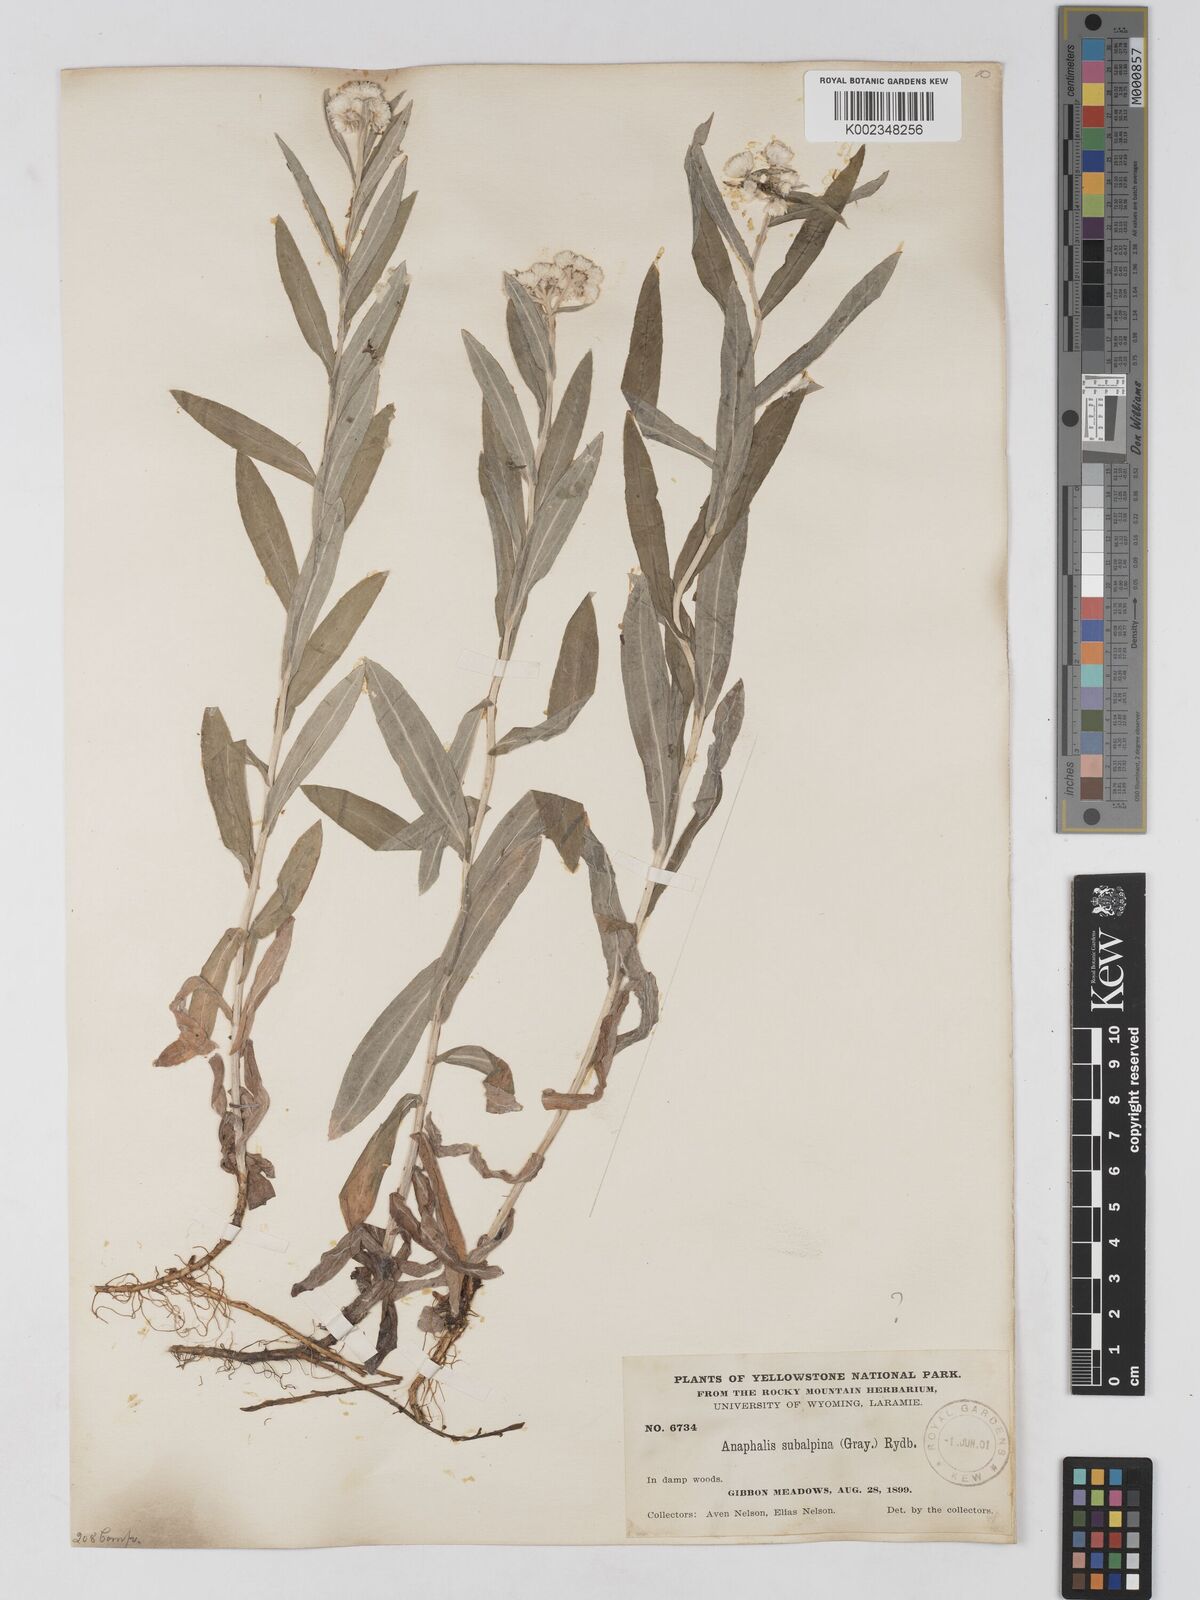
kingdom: Plantae
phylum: Tracheophyta
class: Magnoliopsida
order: Asterales
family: Asteraceae
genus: Anaphalis
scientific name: Anaphalis margaritacea
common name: Pearly everlasting
